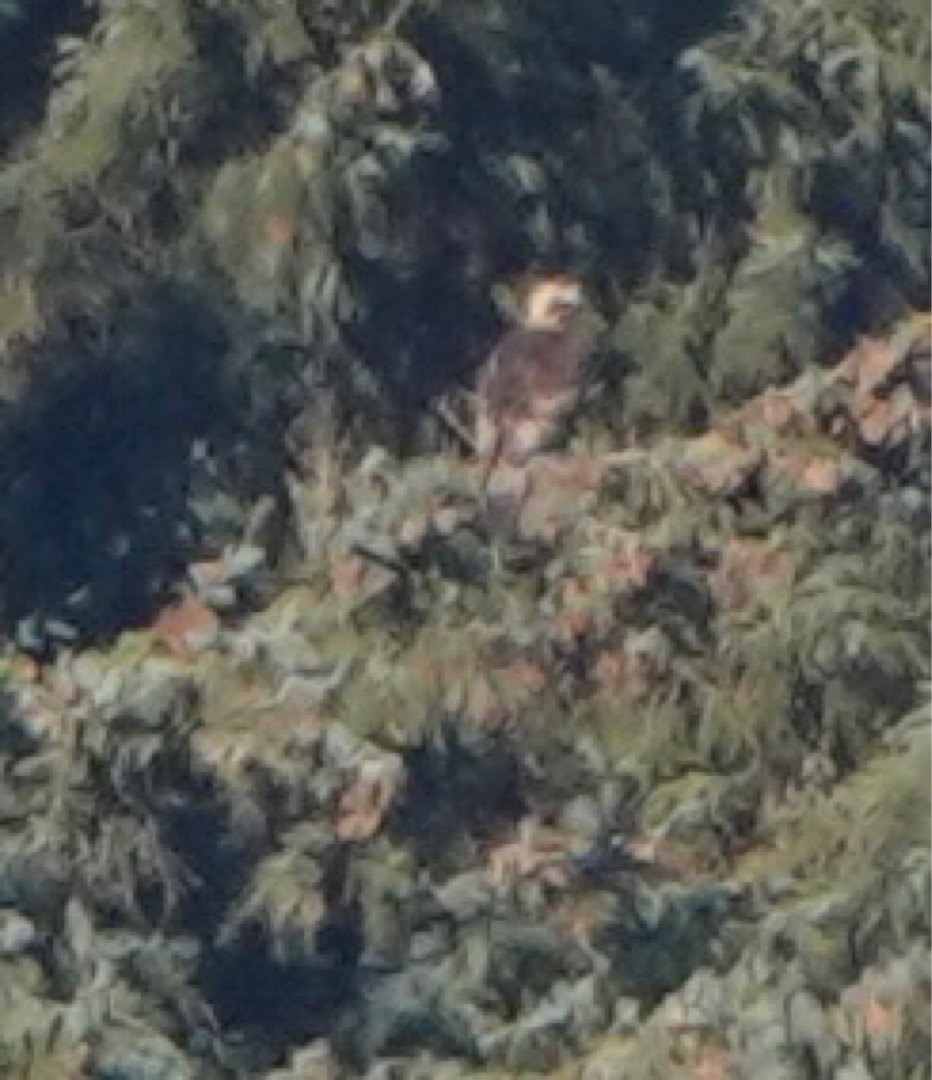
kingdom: Animalia
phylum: Chordata
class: Aves
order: Accipitriformes
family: Accipitridae
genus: Aquila
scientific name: Aquila chrysaetos
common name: Kongeørn
